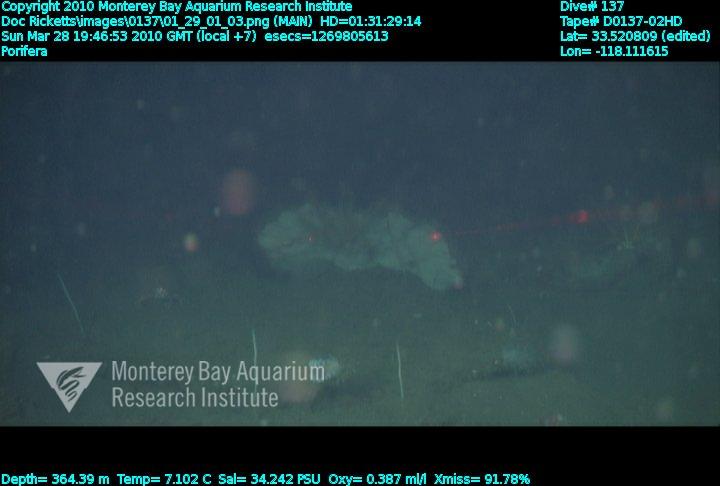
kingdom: Animalia
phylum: Porifera
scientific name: Porifera
